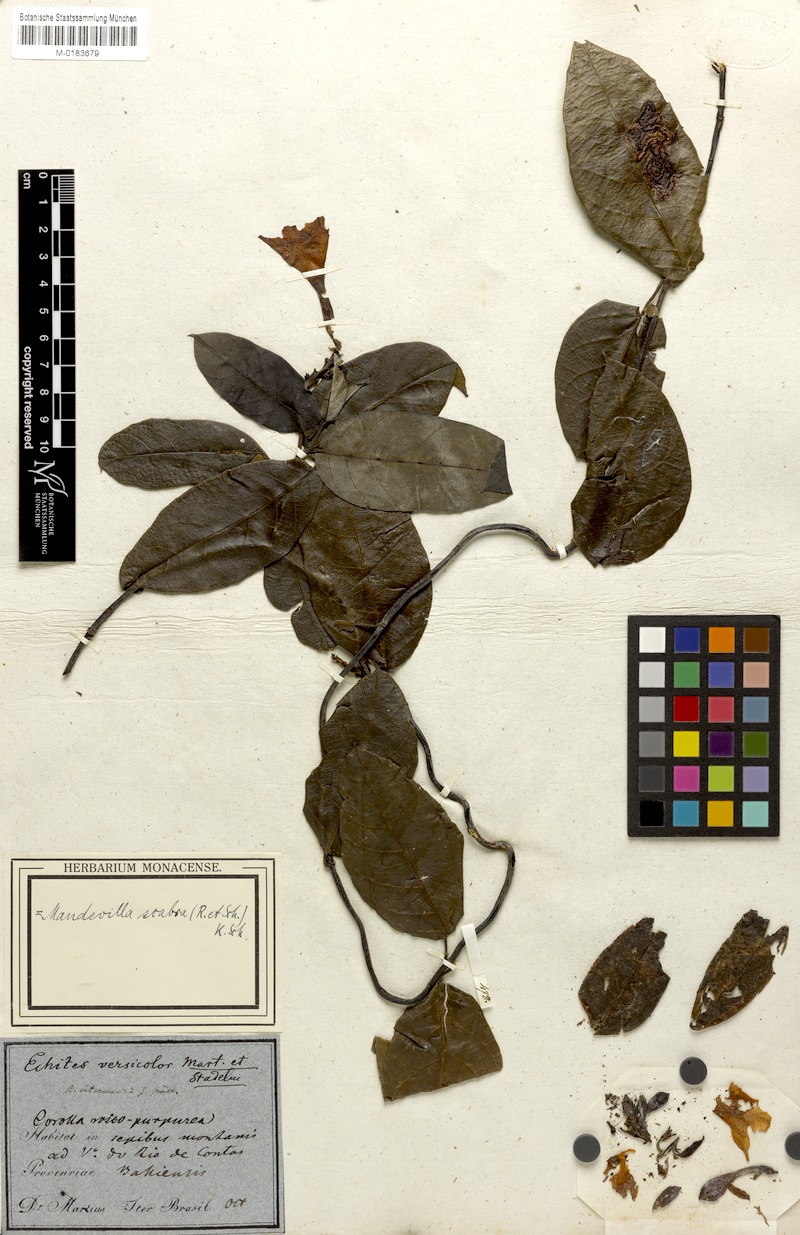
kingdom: Plantae
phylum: Tracheophyta
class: Magnoliopsida
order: Gentianales
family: Apocynaceae
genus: Mandevilla
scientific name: Mandevilla scabra
